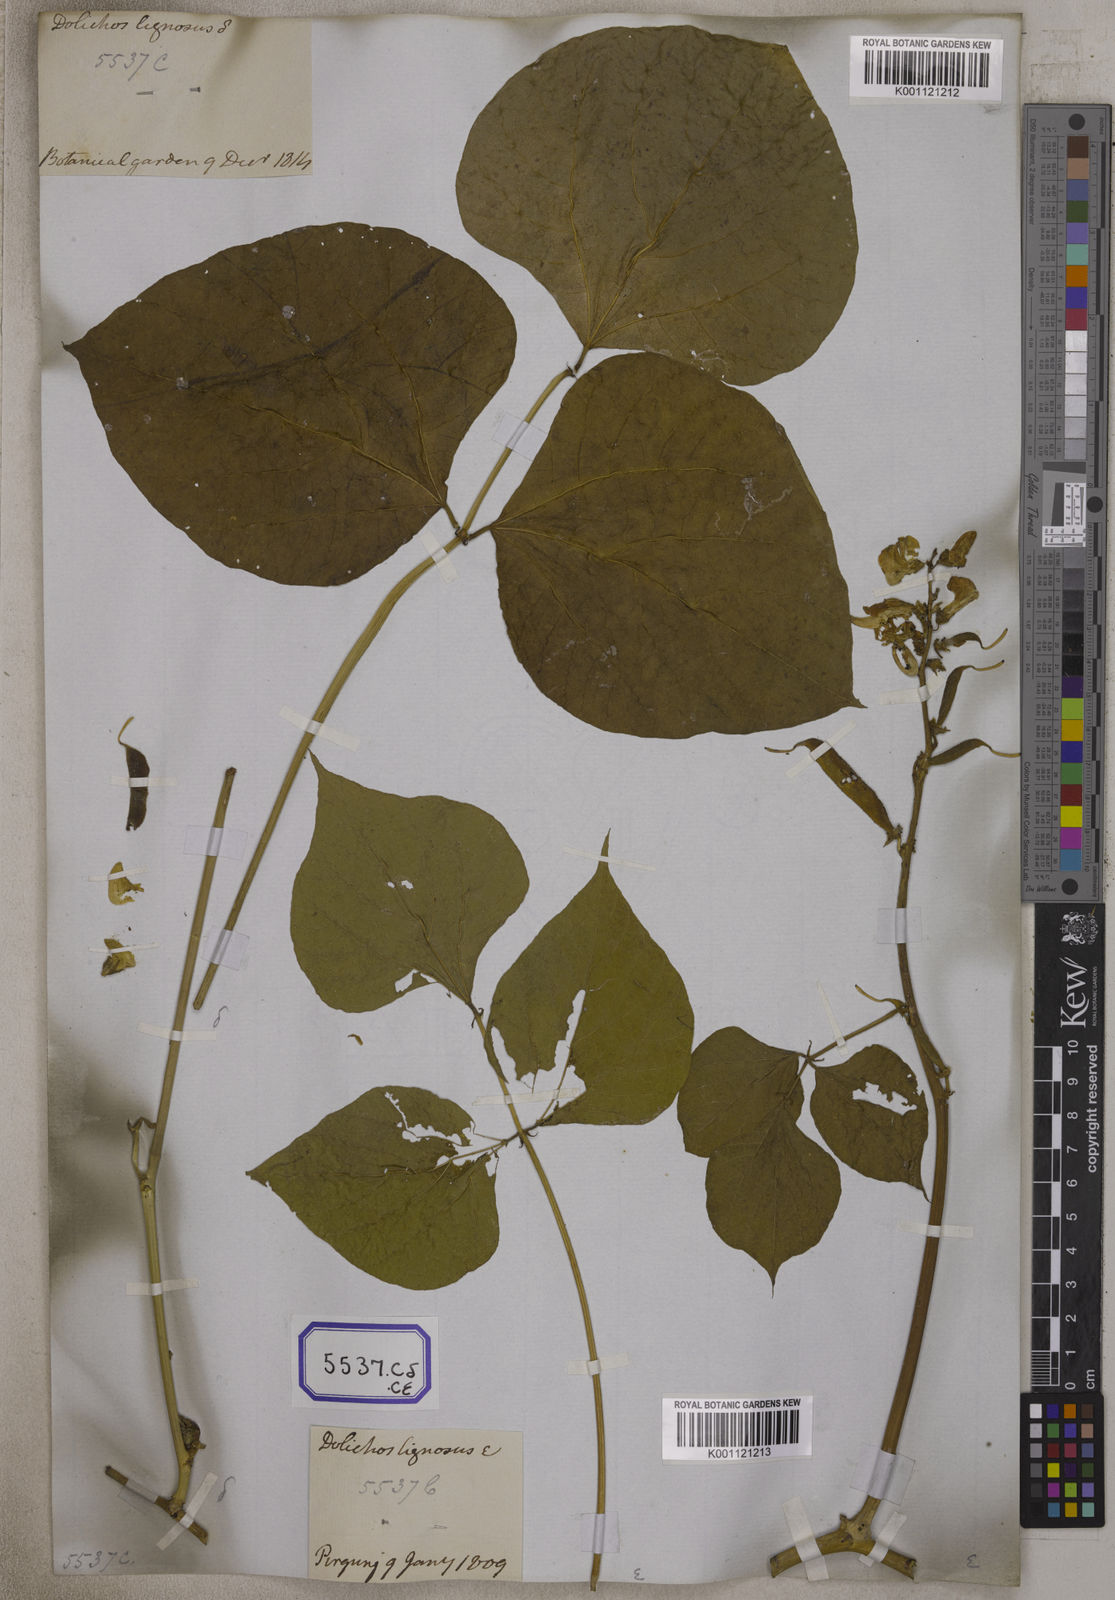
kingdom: Plantae
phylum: Tracheophyta
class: Magnoliopsida
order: Fabales
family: Fabaceae
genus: Lablab
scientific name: Lablab purpureus
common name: Lablab-bean
